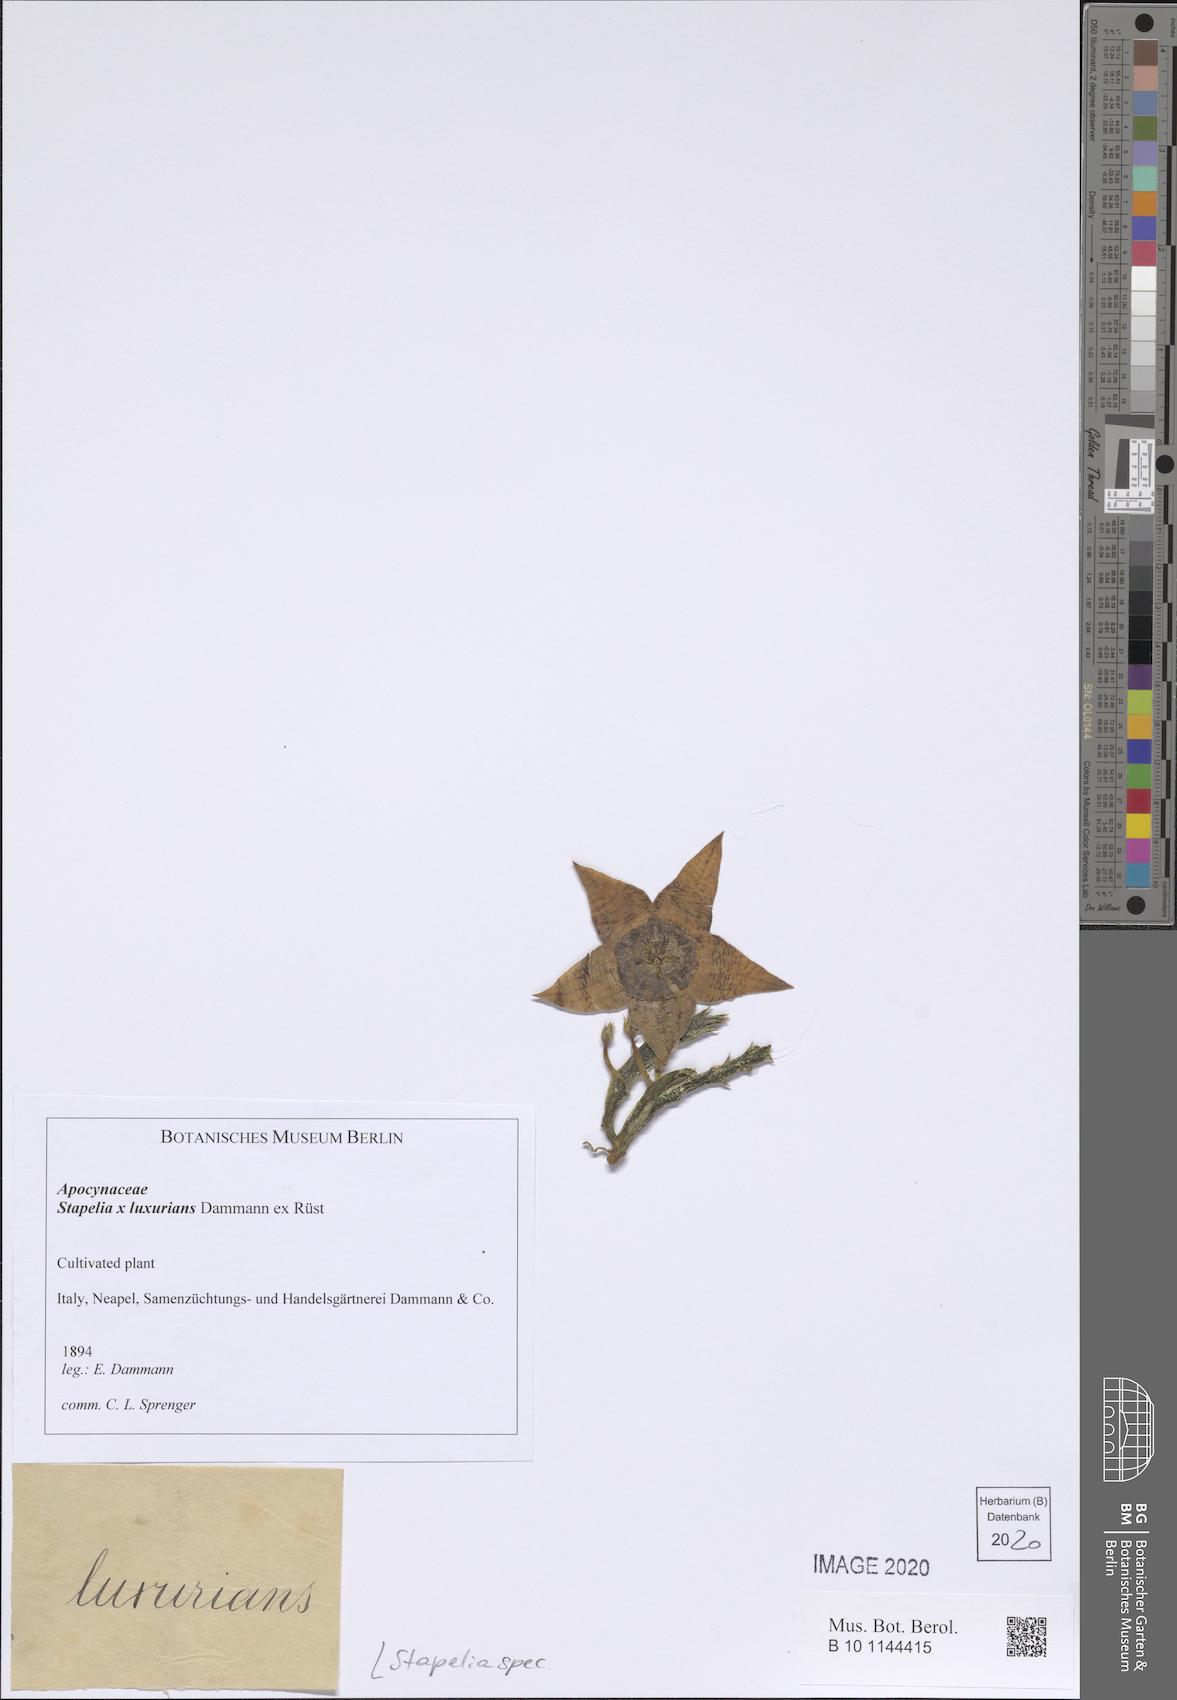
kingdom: Plantae
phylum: Tracheophyta
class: Magnoliopsida
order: Gentianales
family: Apocynaceae
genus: Stapelia
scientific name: Stapelia
